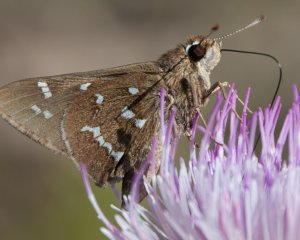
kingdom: Animalia
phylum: Arthropoda
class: Insecta
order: Lepidoptera
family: Hesperiidae
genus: Atrytonopsis
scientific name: Atrytonopsis loammi
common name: Loammi Skipper
